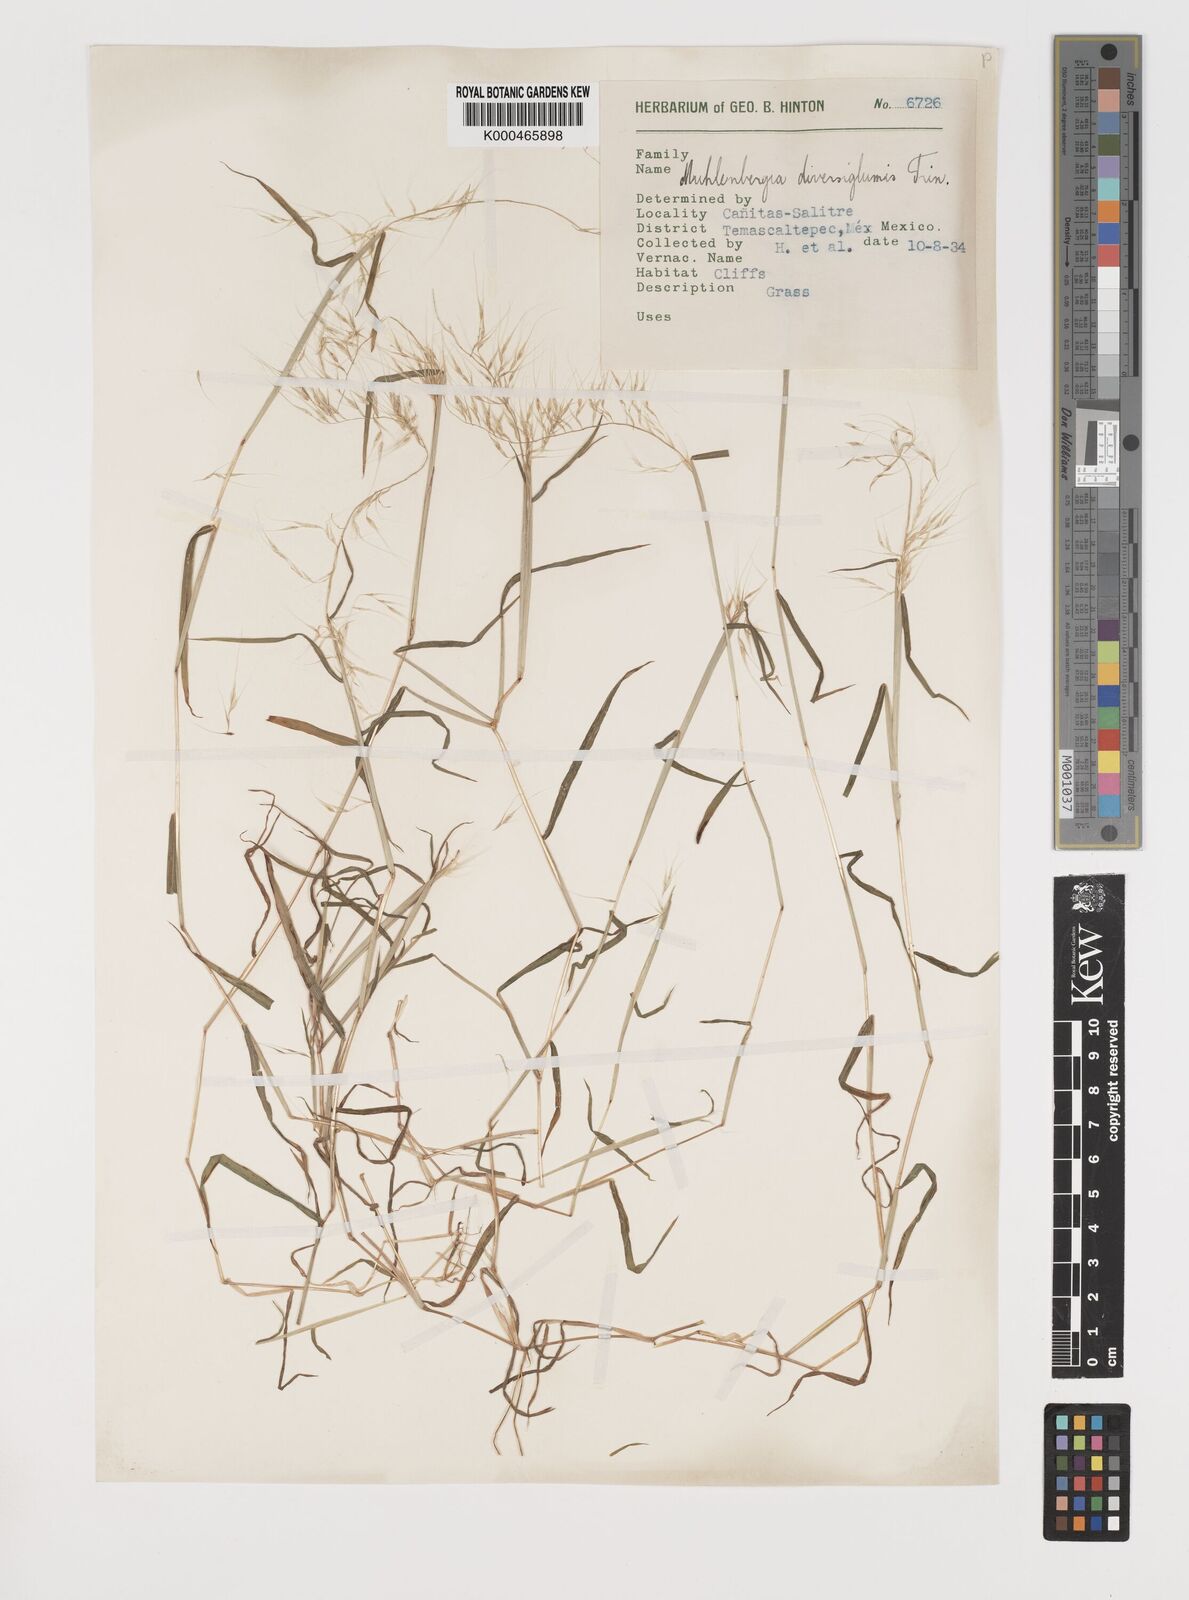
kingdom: Plantae
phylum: Tracheophyta
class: Liliopsida
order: Poales
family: Poaceae
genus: Muhlenbergia
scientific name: Muhlenbergia diversiglumis
